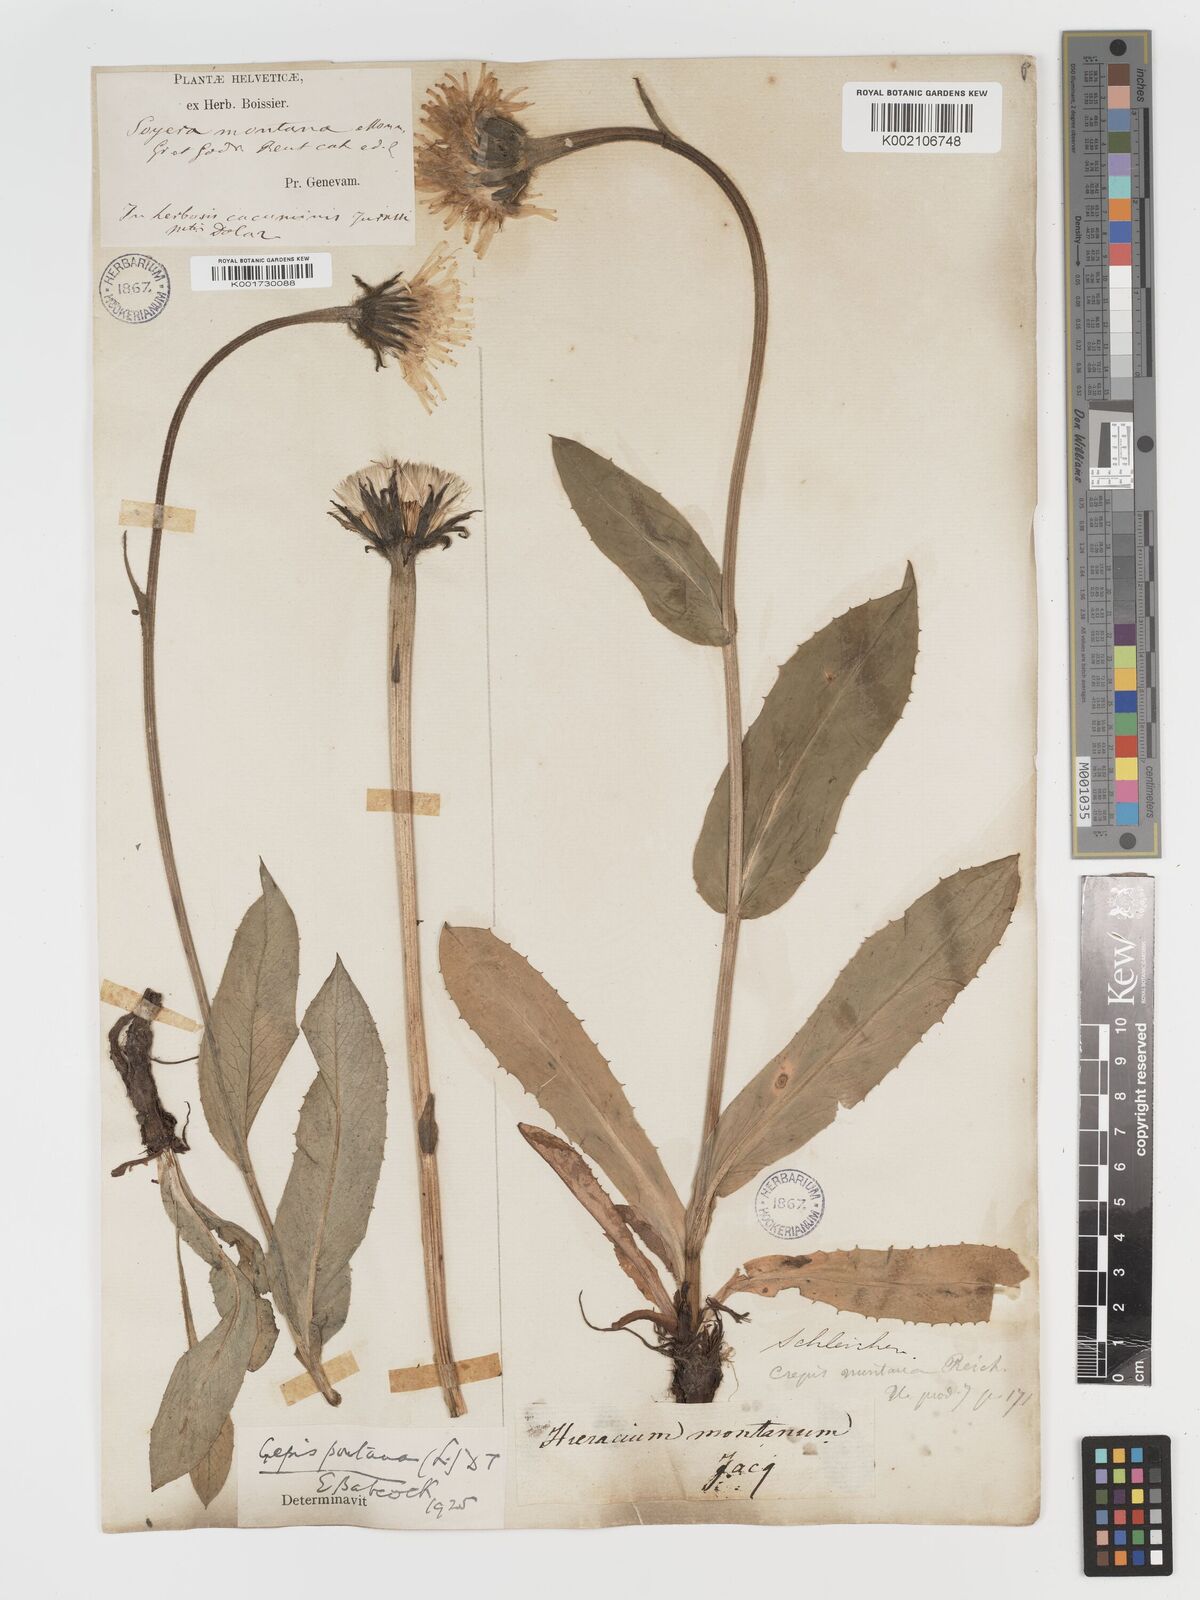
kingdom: Plantae
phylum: Tracheophyta
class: Magnoliopsida
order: Asterales
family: Asteraceae
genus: Crepis
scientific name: Crepis pontana
